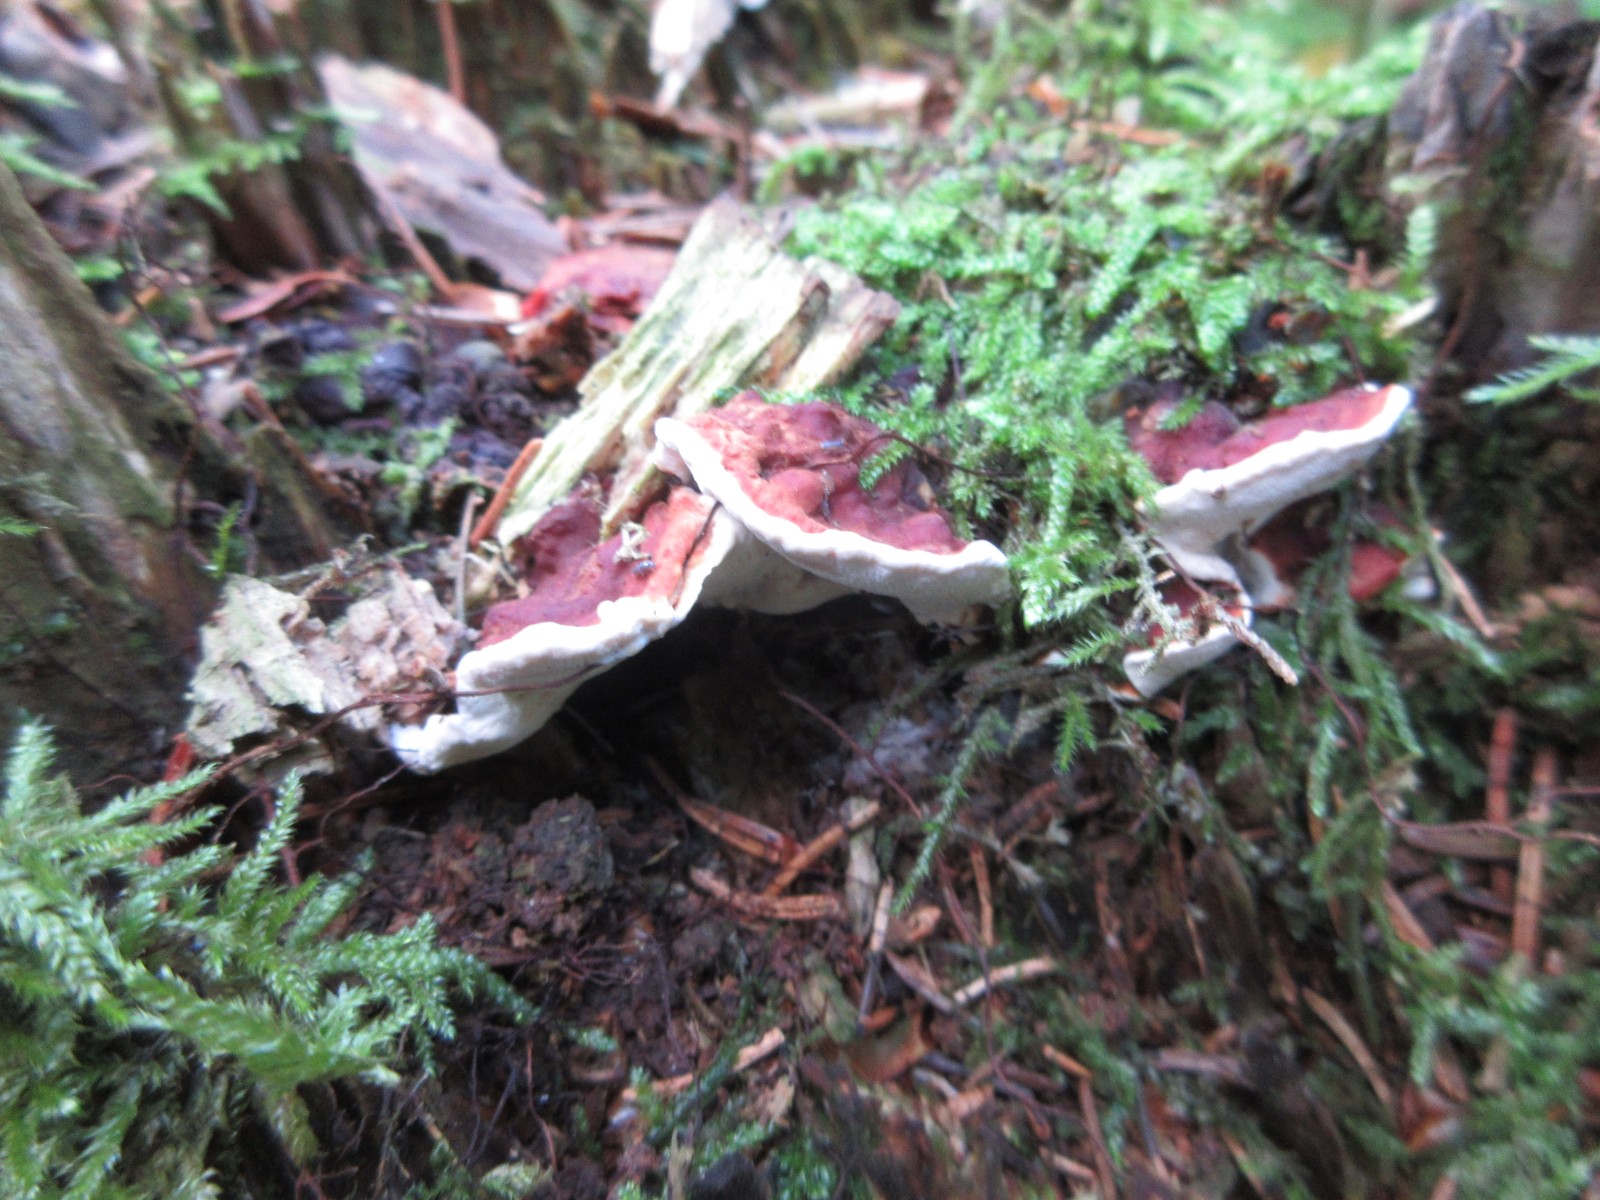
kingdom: Fungi
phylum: Basidiomycota
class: Agaricomycetes
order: Russulales
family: Bondarzewiaceae
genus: Heterobasidion
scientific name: Heterobasidion annosum
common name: almindelig rodfordærver
